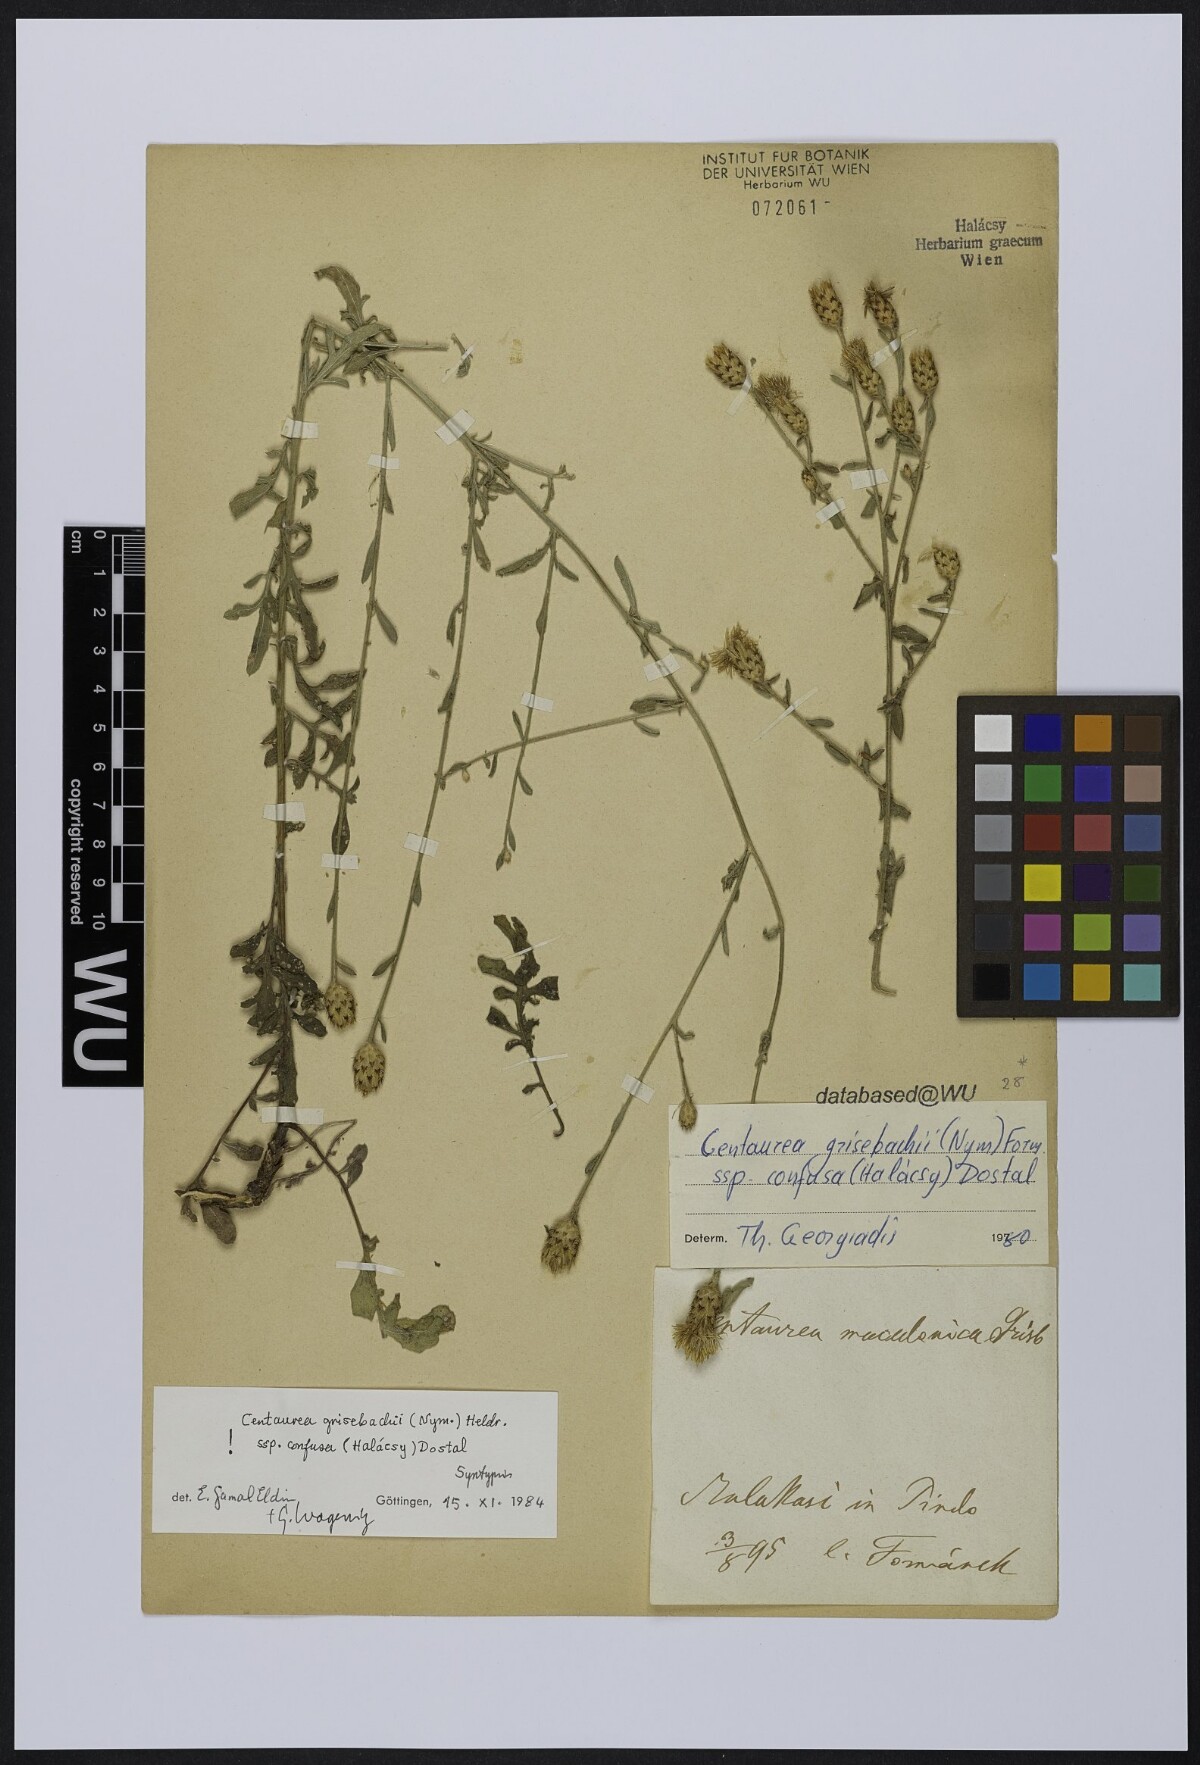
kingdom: Plantae
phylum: Tracheophyta
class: Magnoliopsida
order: Asterales
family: Asteraceae
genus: Centaurea
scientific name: Centaurea grisebachii
